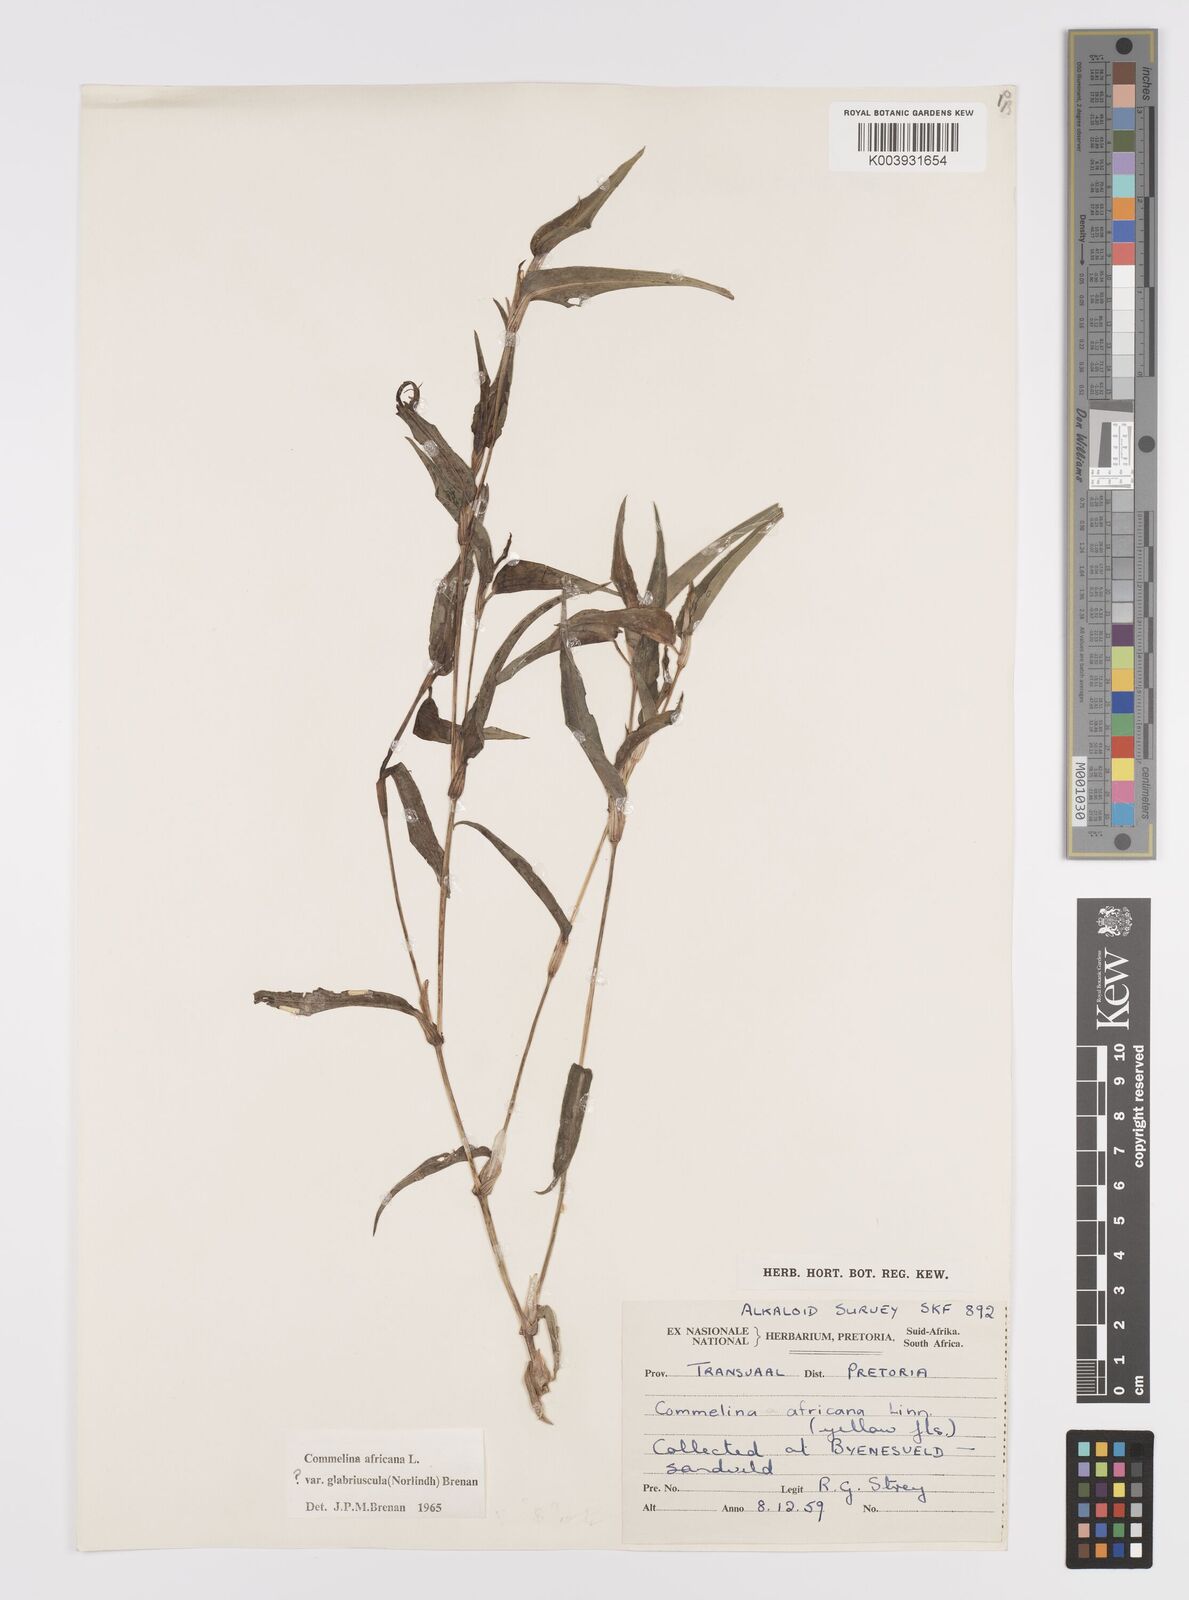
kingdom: Plantae
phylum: Tracheophyta
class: Liliopsida
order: Commelinales
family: Commelinaceae
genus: Commelina
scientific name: Commelina africana
